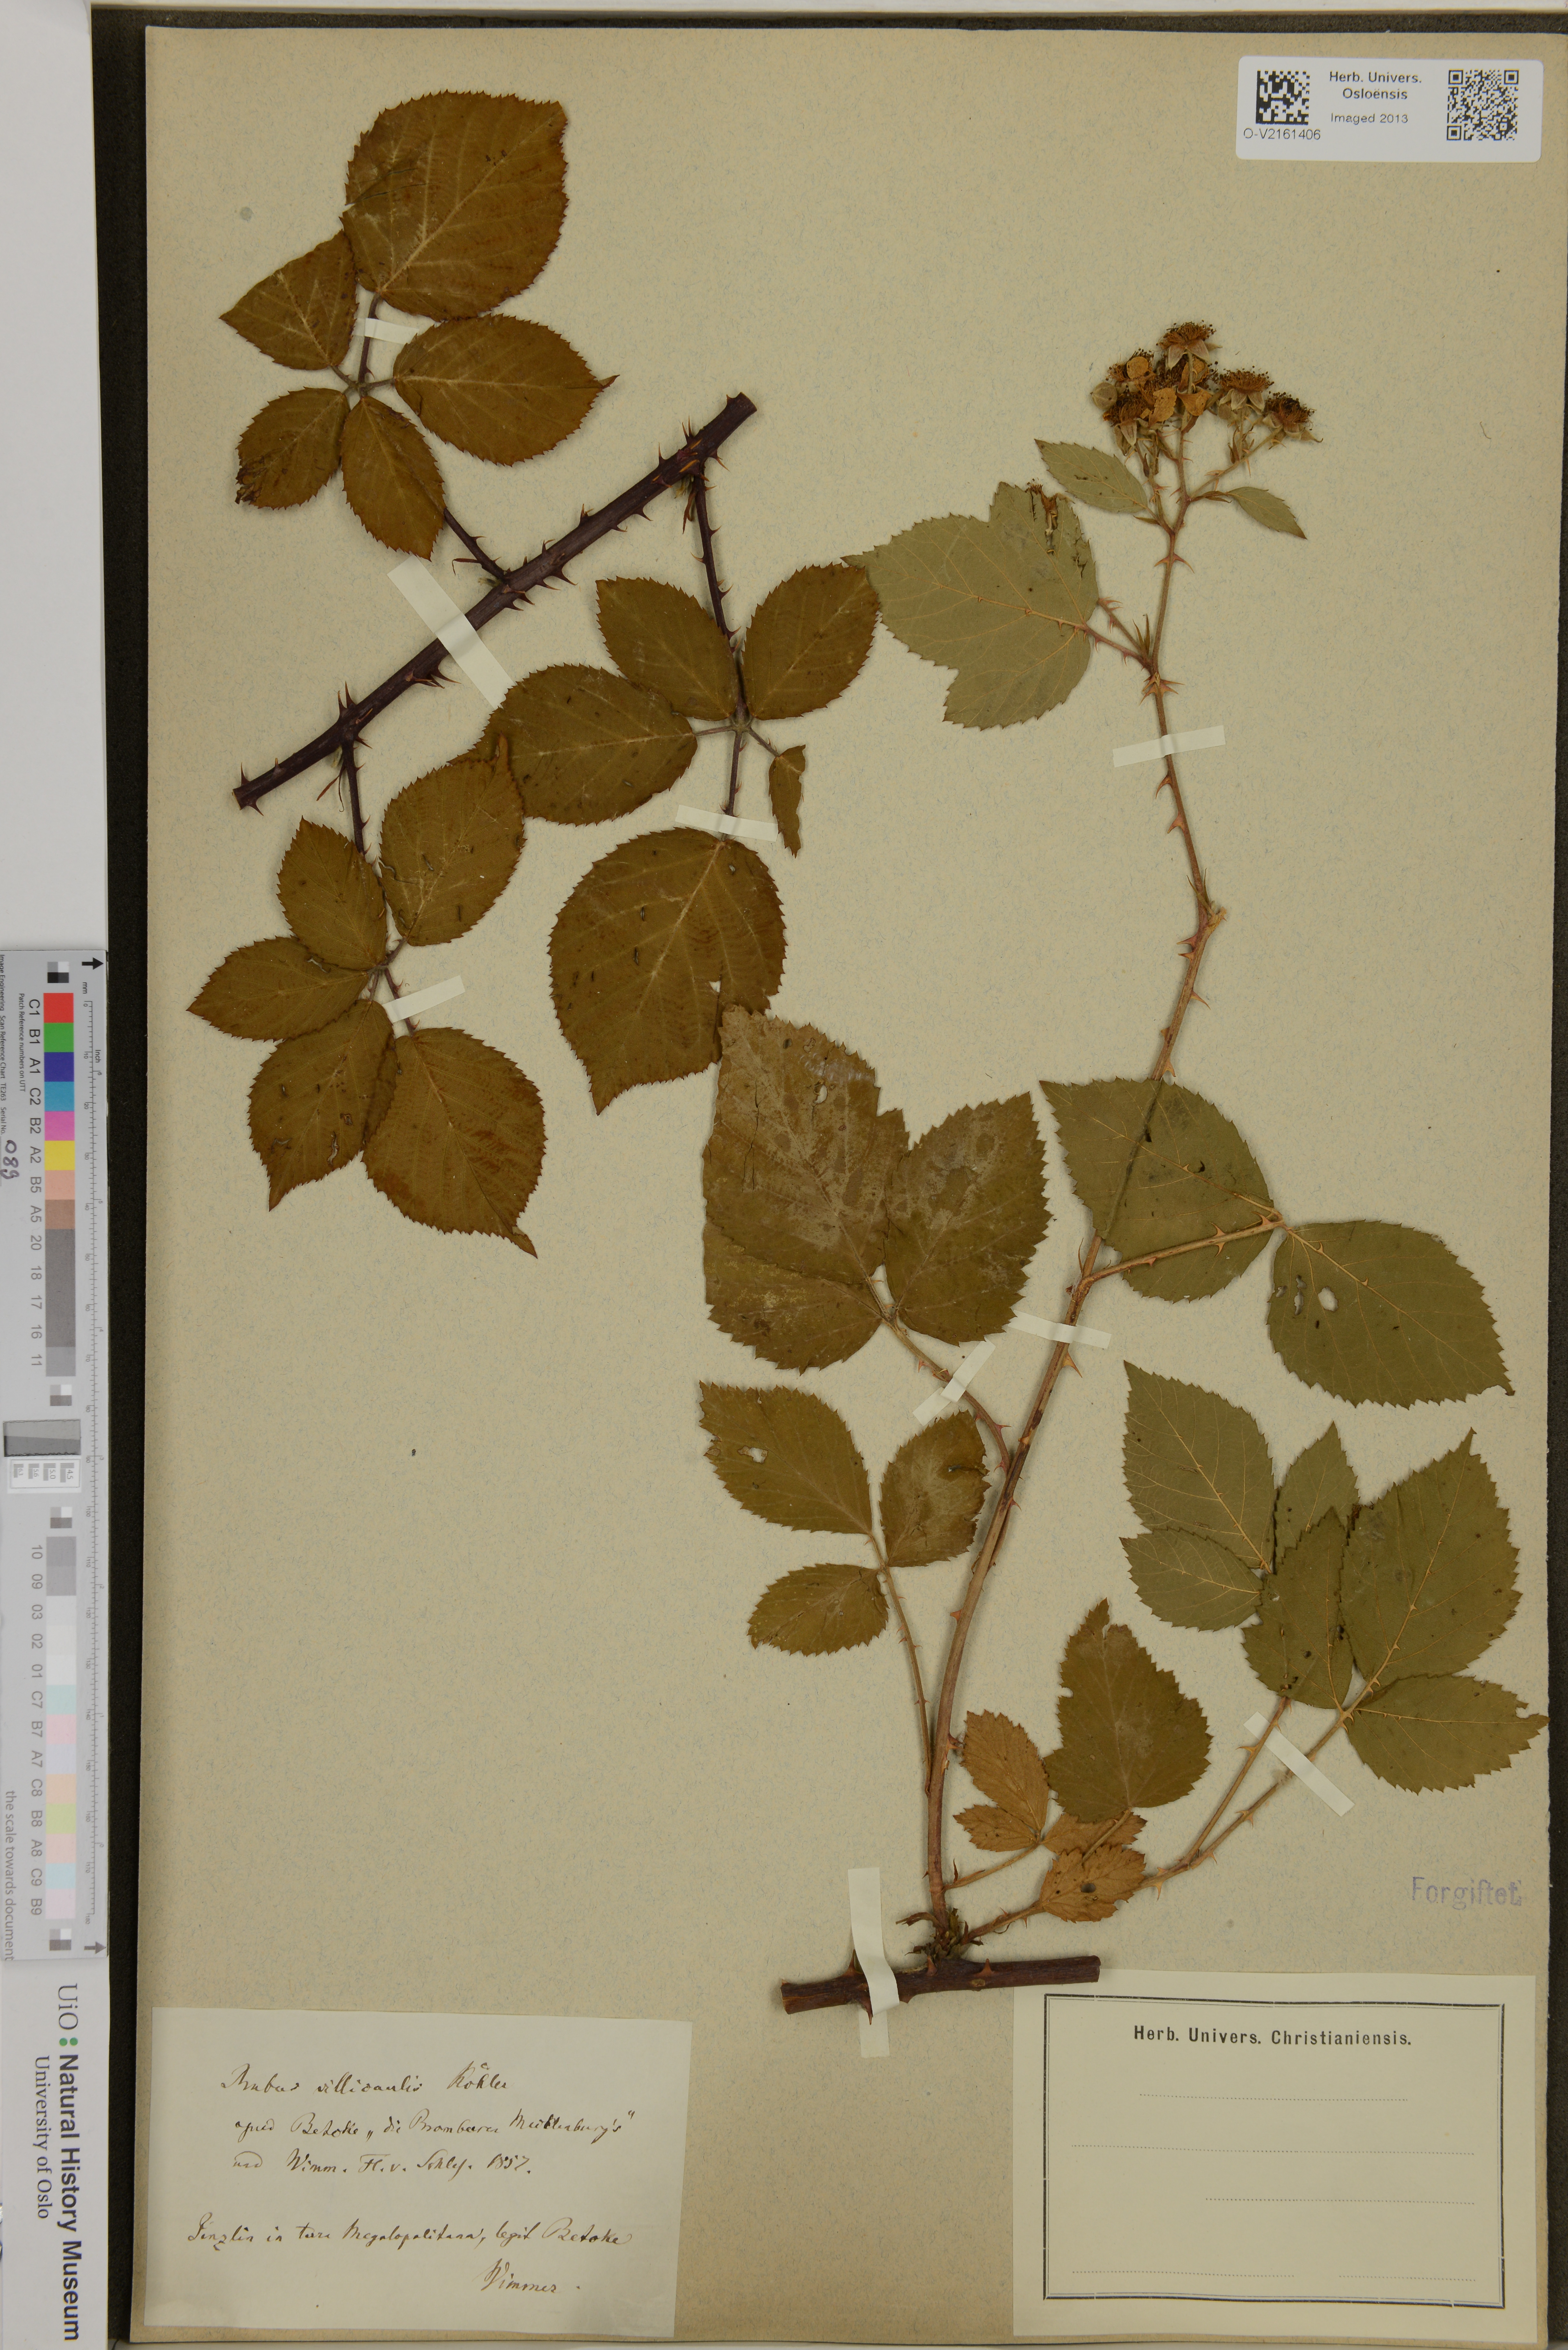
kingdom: Plantae
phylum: Tracheophyta
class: Magnoliopsida
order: Rosales
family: Rosaceae
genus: Rubus
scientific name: Rubus villicaulis
